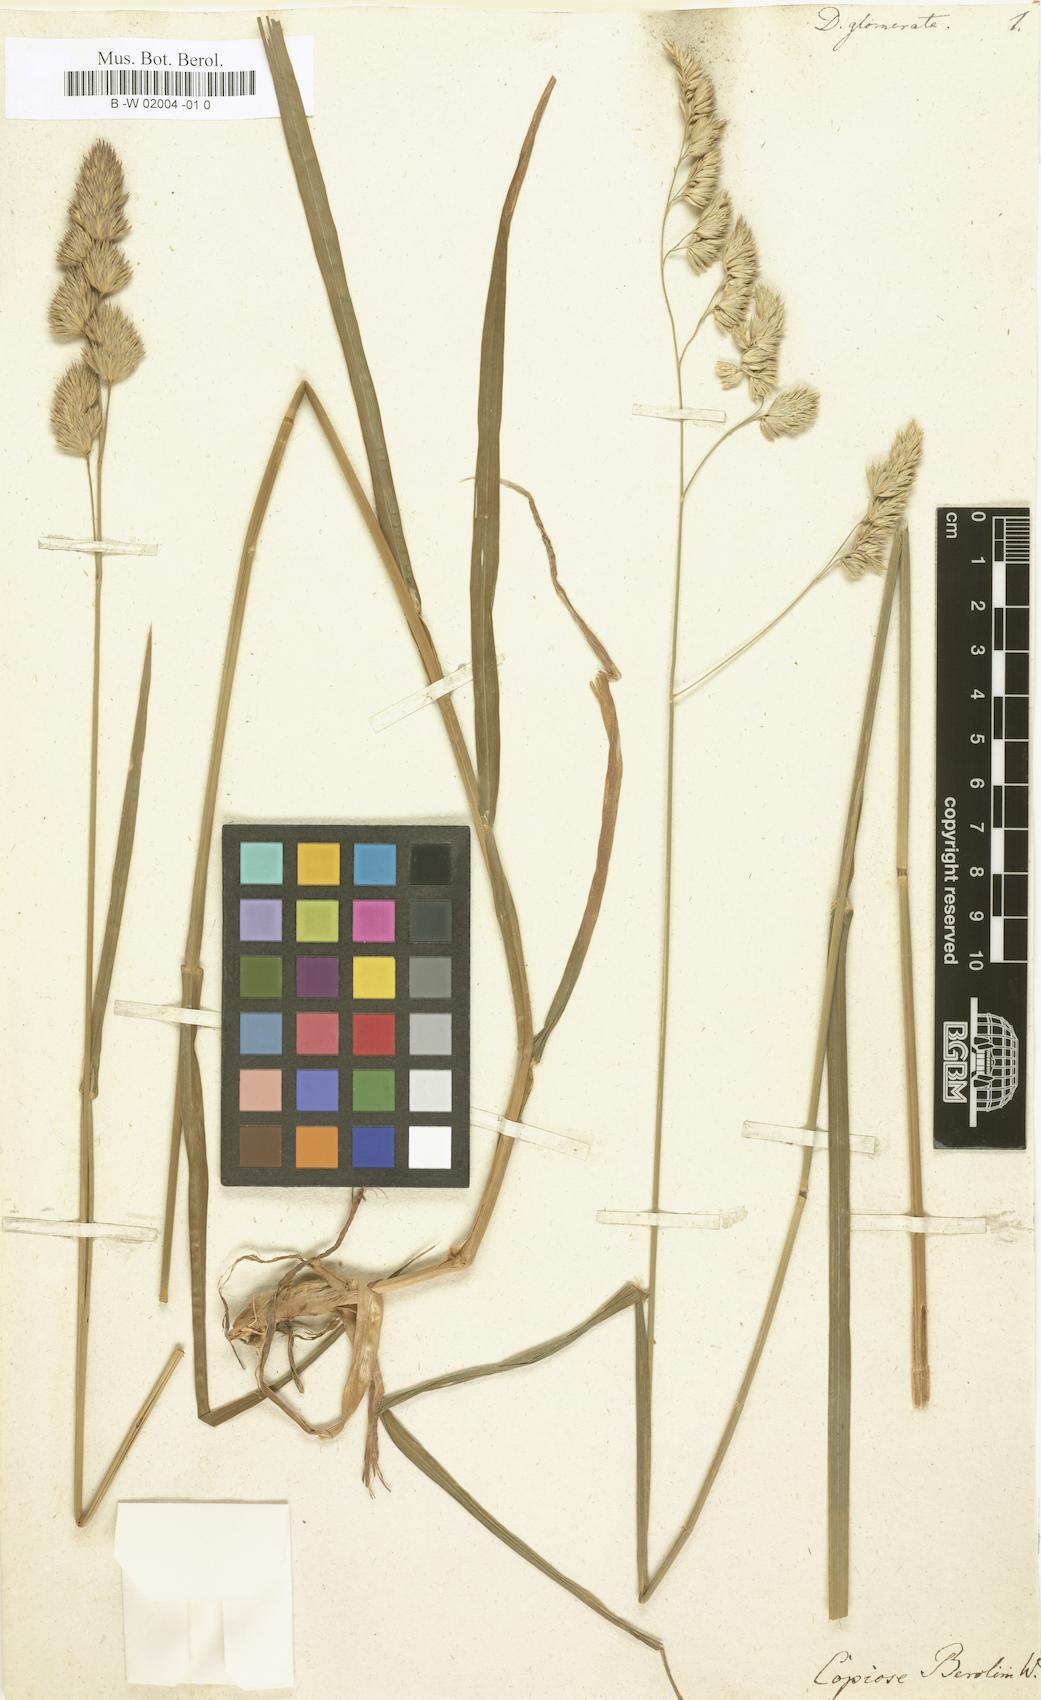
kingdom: Plantae
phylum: Tracheophyta
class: Liliopsida
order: Poales
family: Poaceae
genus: Dactylis
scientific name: Dactylis glomerata
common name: Orchardgrass
